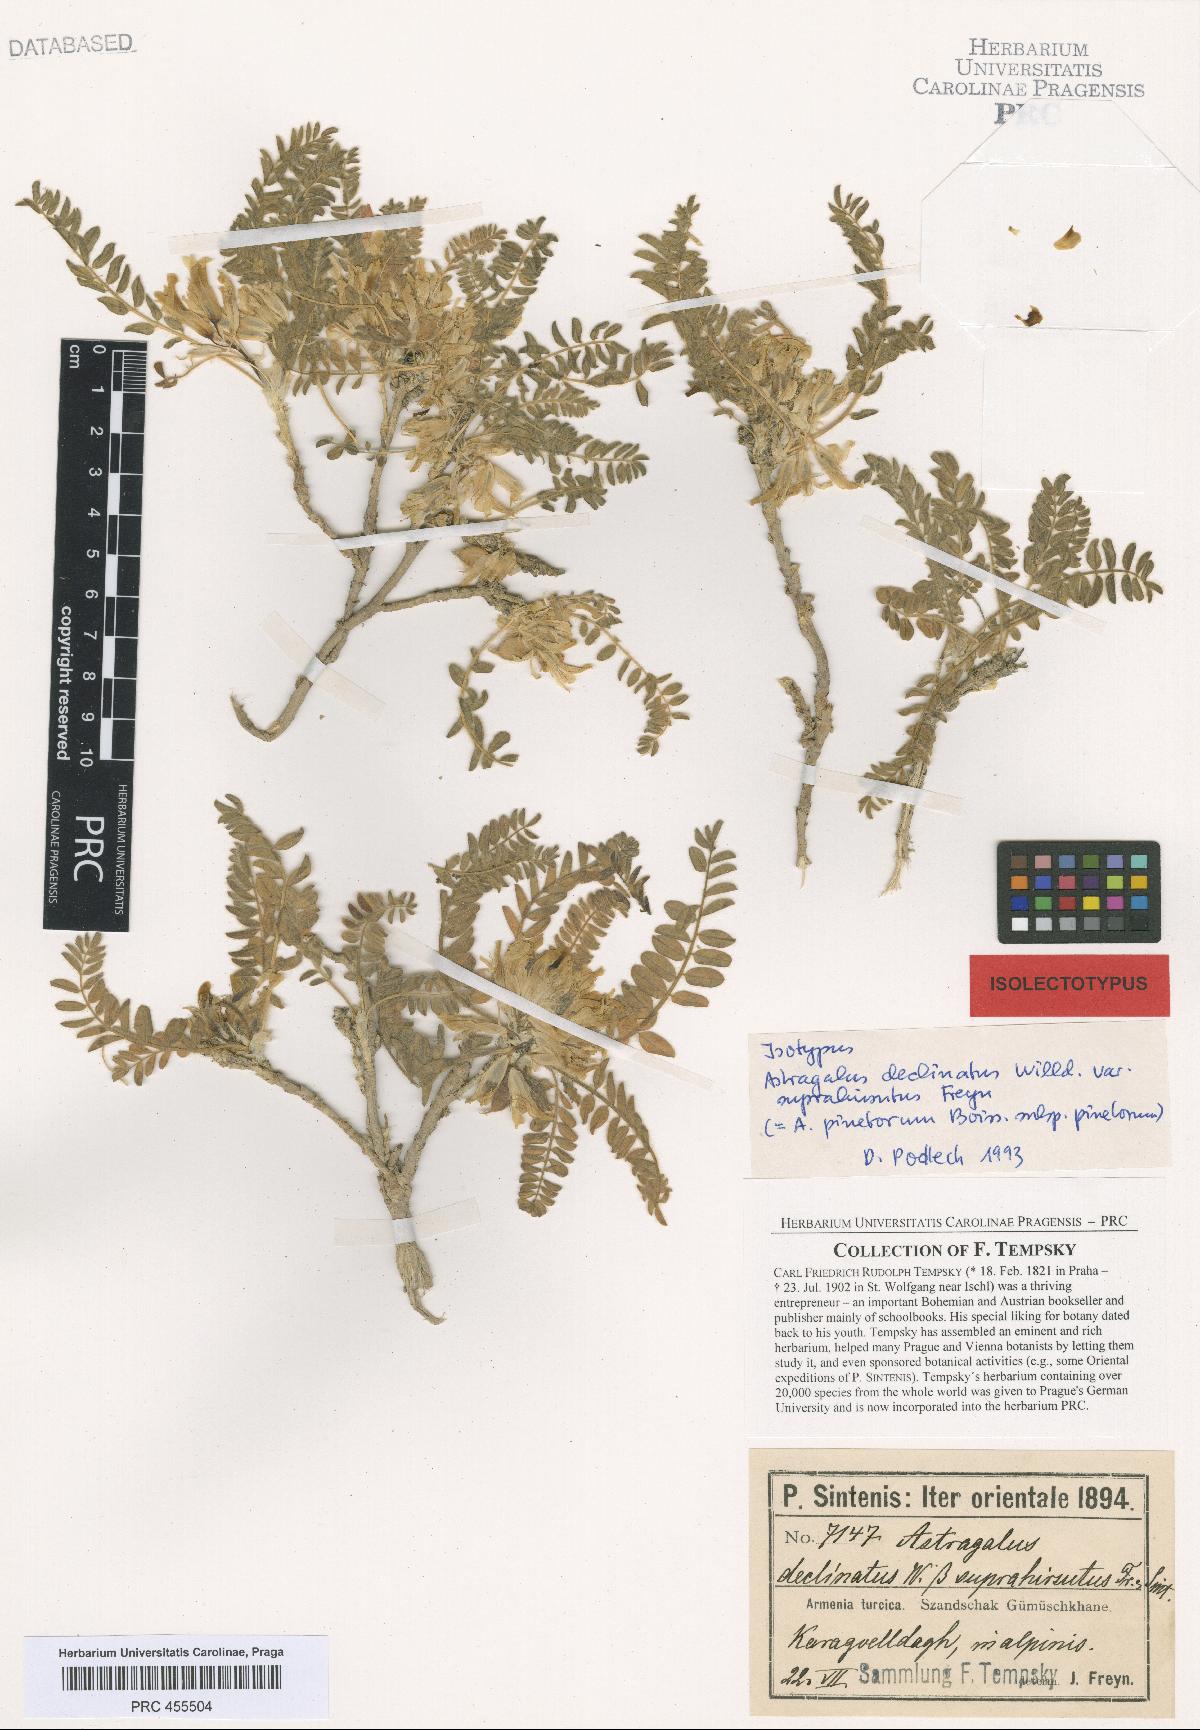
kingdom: Plantae
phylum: Tracheophyta
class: Magnoliopsida
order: Fabales
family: Fabaceae
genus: Astragalus
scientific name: Astragalus pinetorum
